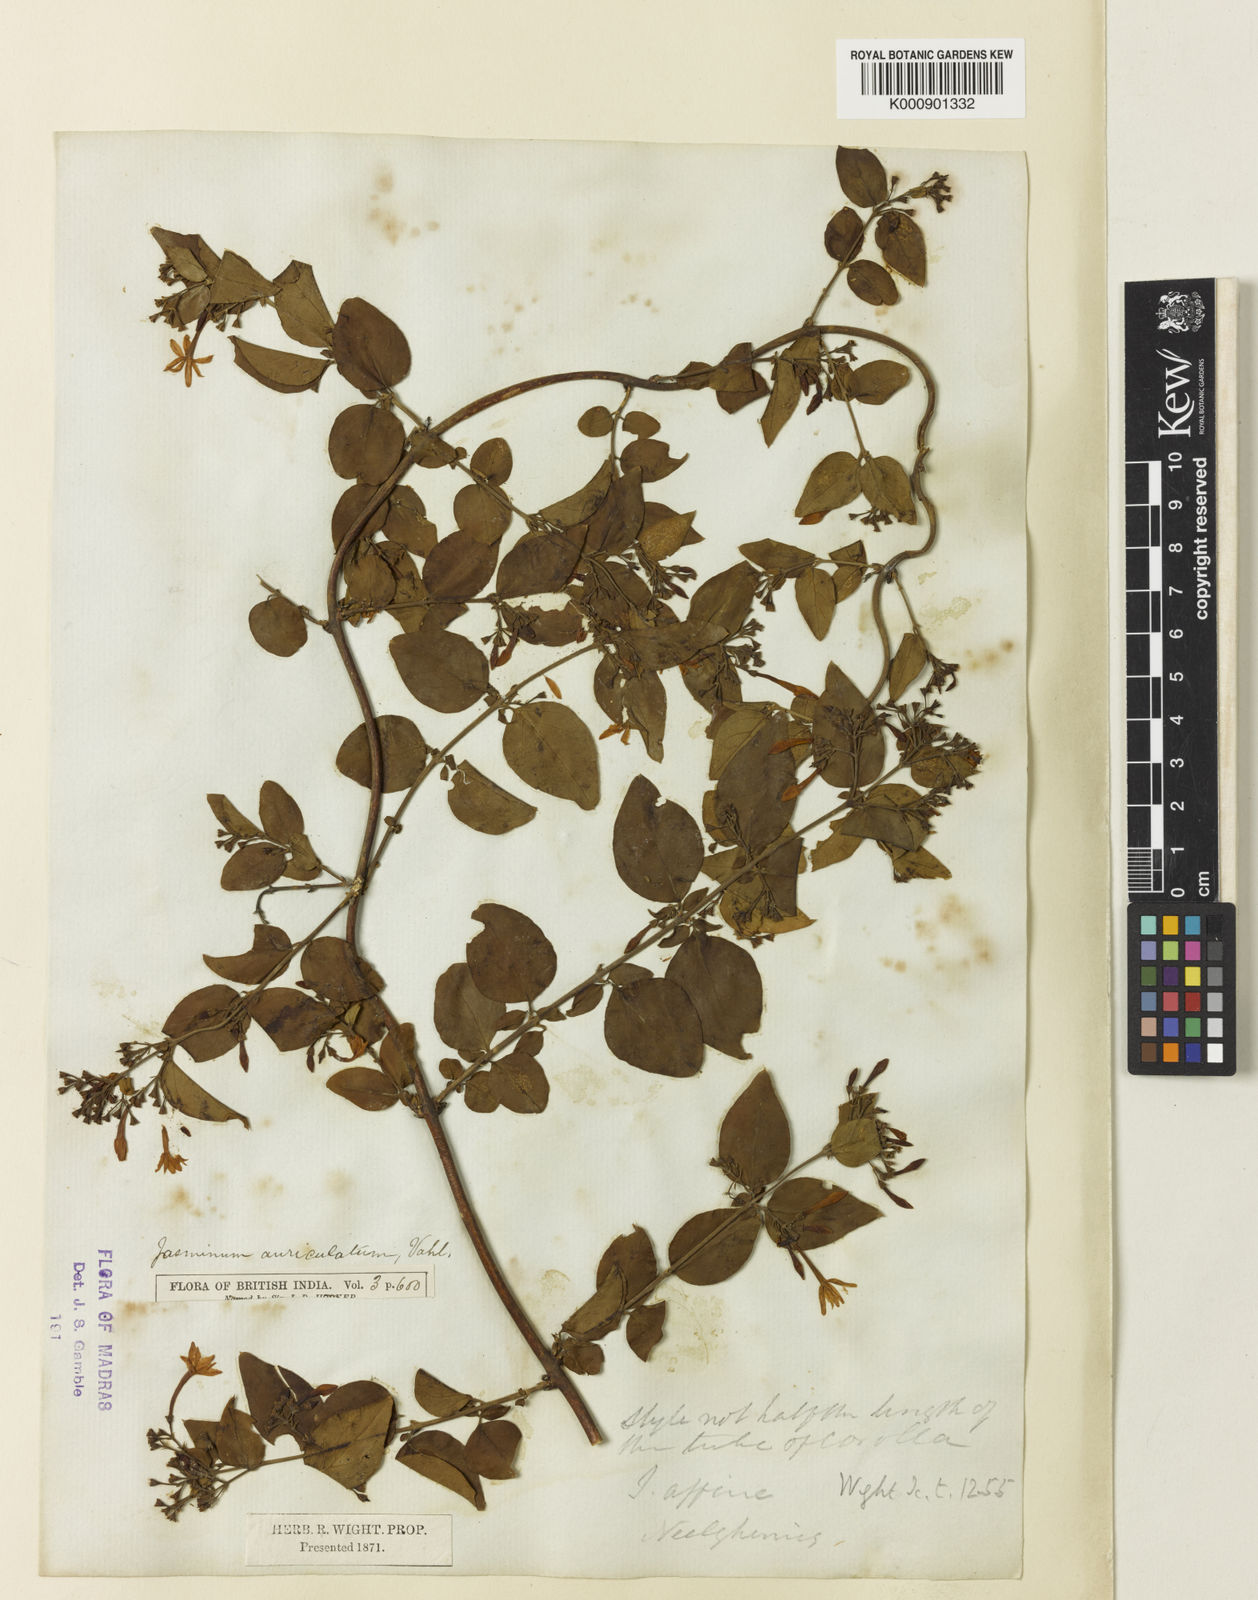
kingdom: Plantae
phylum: Tracheophyta
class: Magnoliopsida
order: Lamiales
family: Oleaceae
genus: Jasminum
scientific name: Jasminum auriculatum
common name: Needle-flower jasmine
